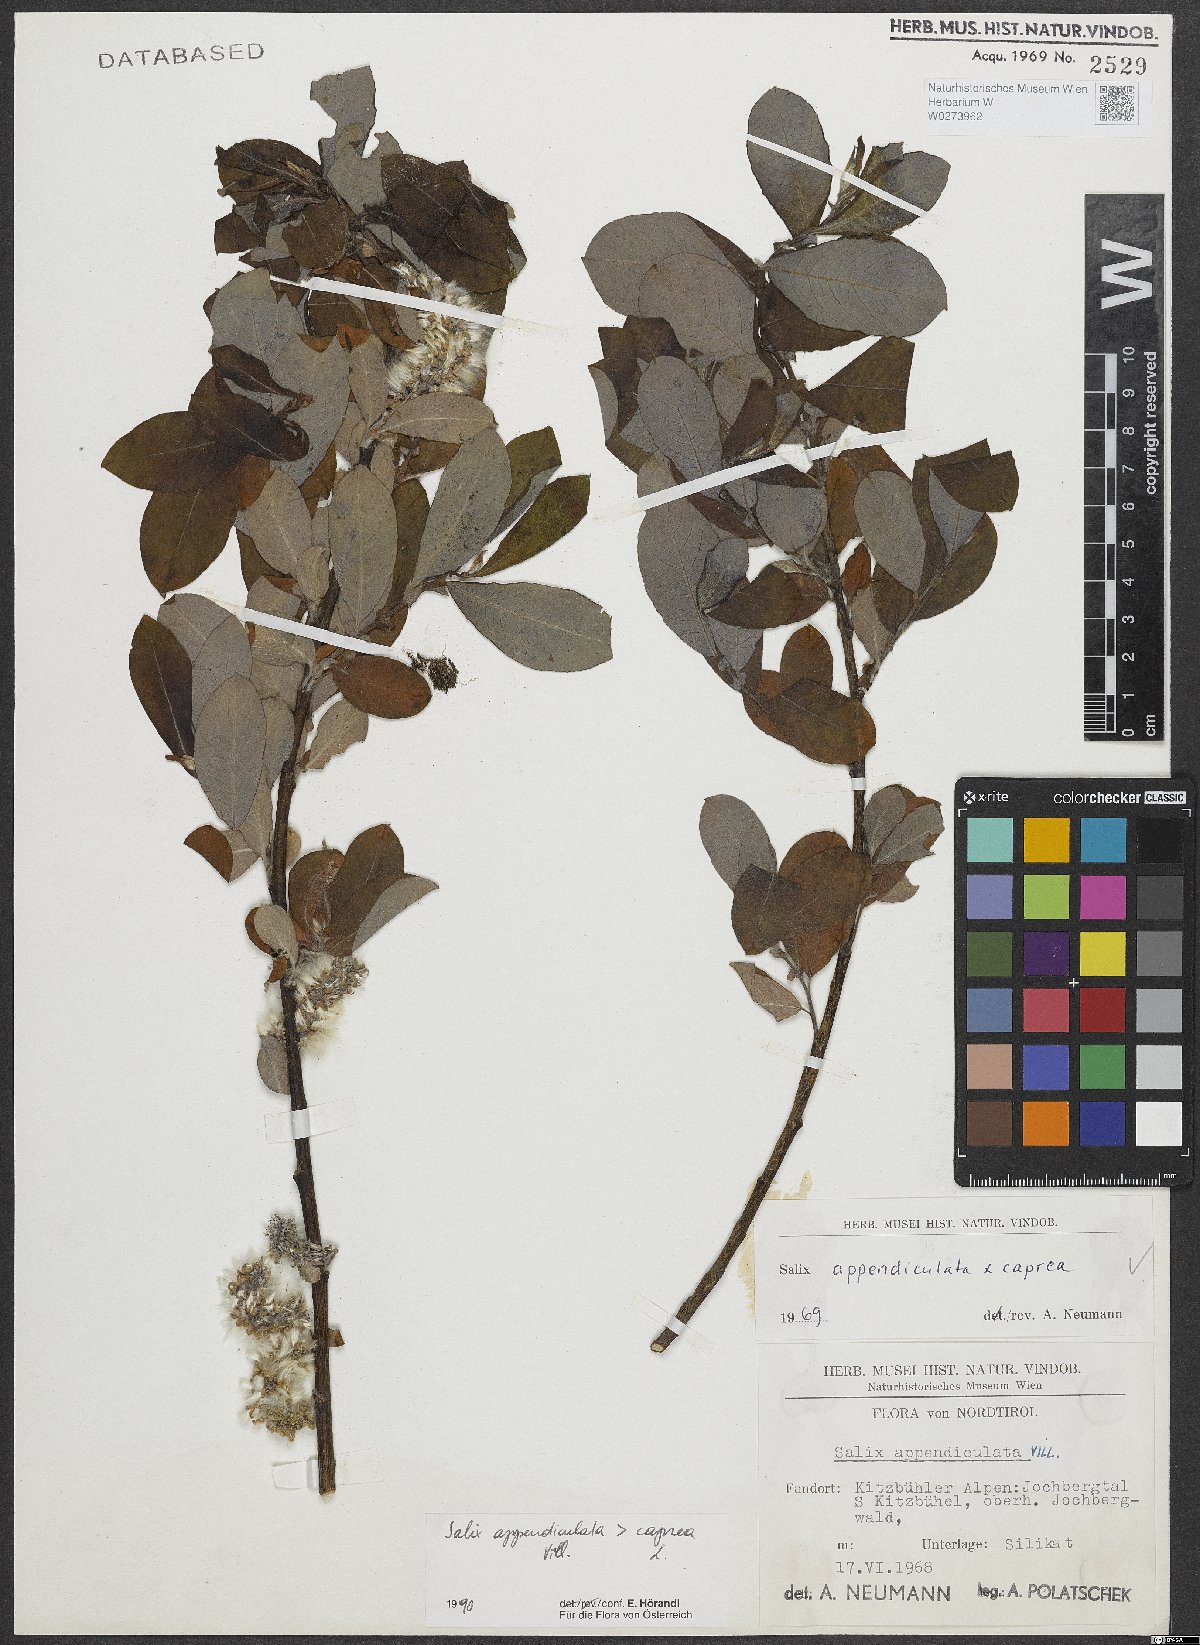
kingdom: Plantae
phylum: Tracheophyta
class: Magnoliopsida
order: Malpighiales
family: Salicaceae
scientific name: Salicaceae
